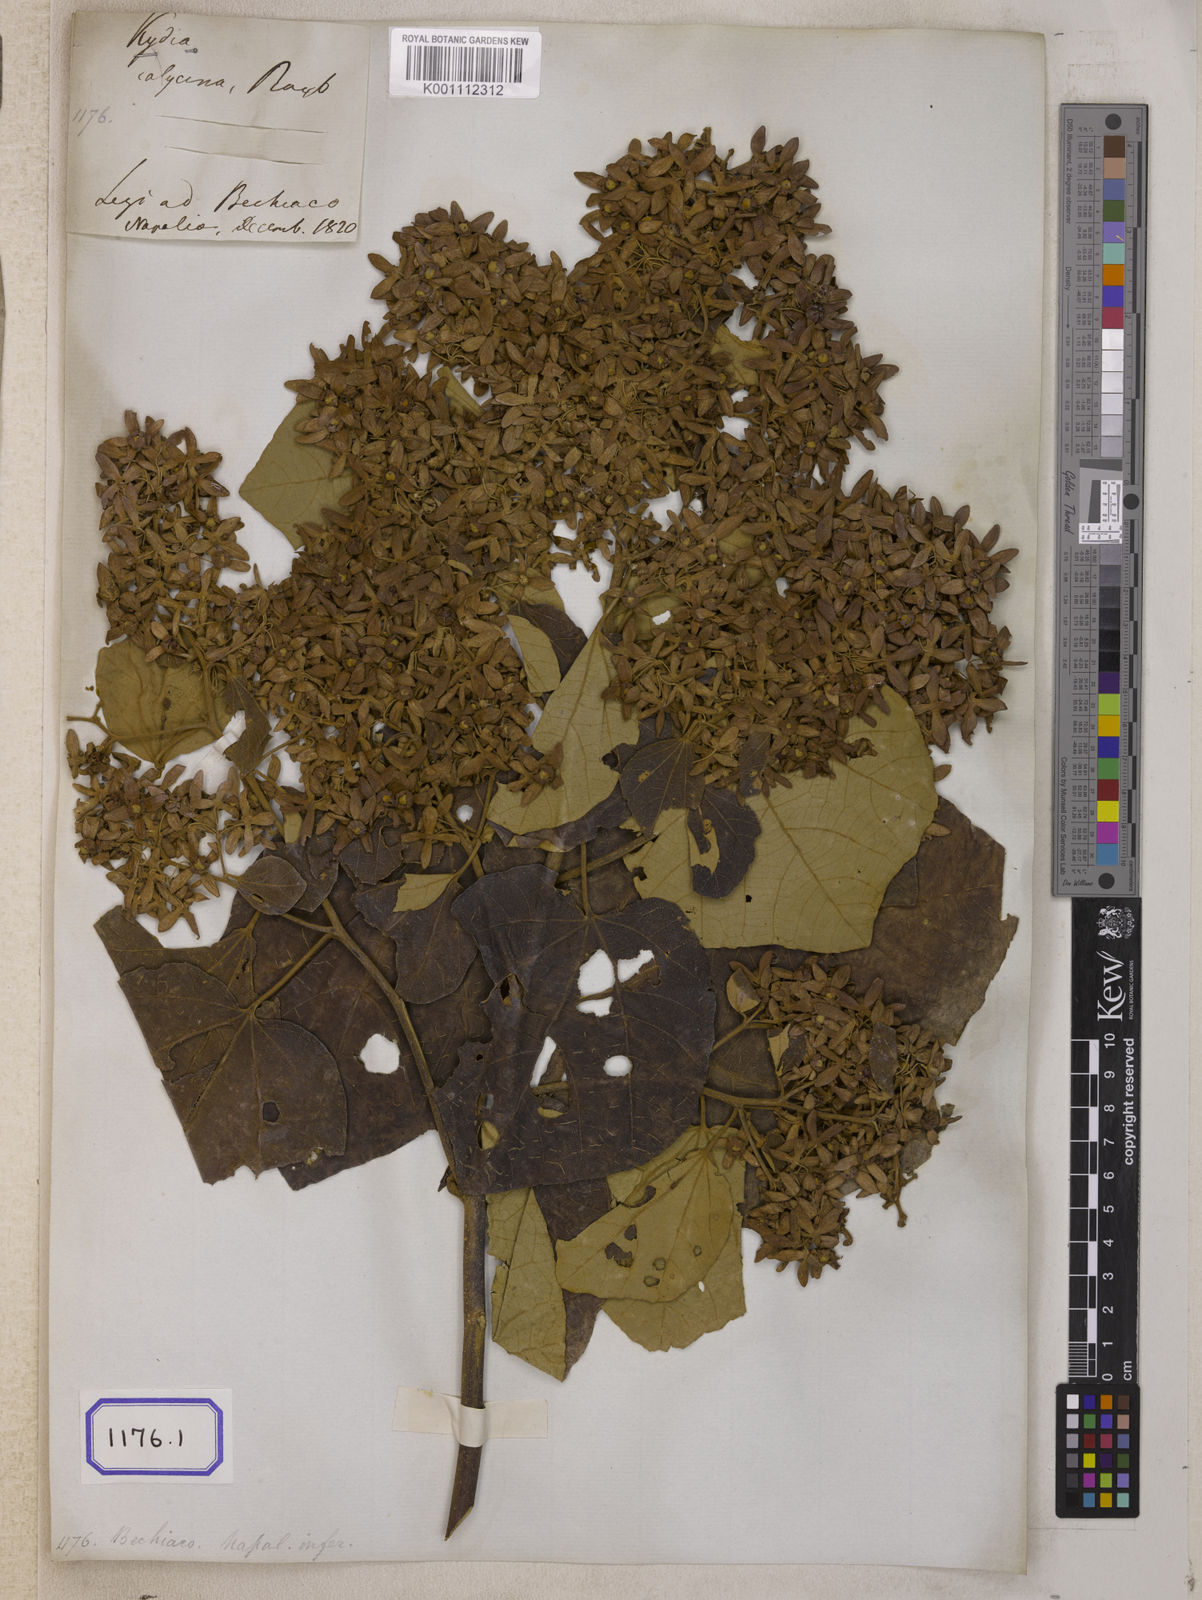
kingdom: Plantae
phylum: Tracheophyta
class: Magnoliopsida
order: Malvales
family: Malvaceae
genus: Kydia
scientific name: Kydia calycina
